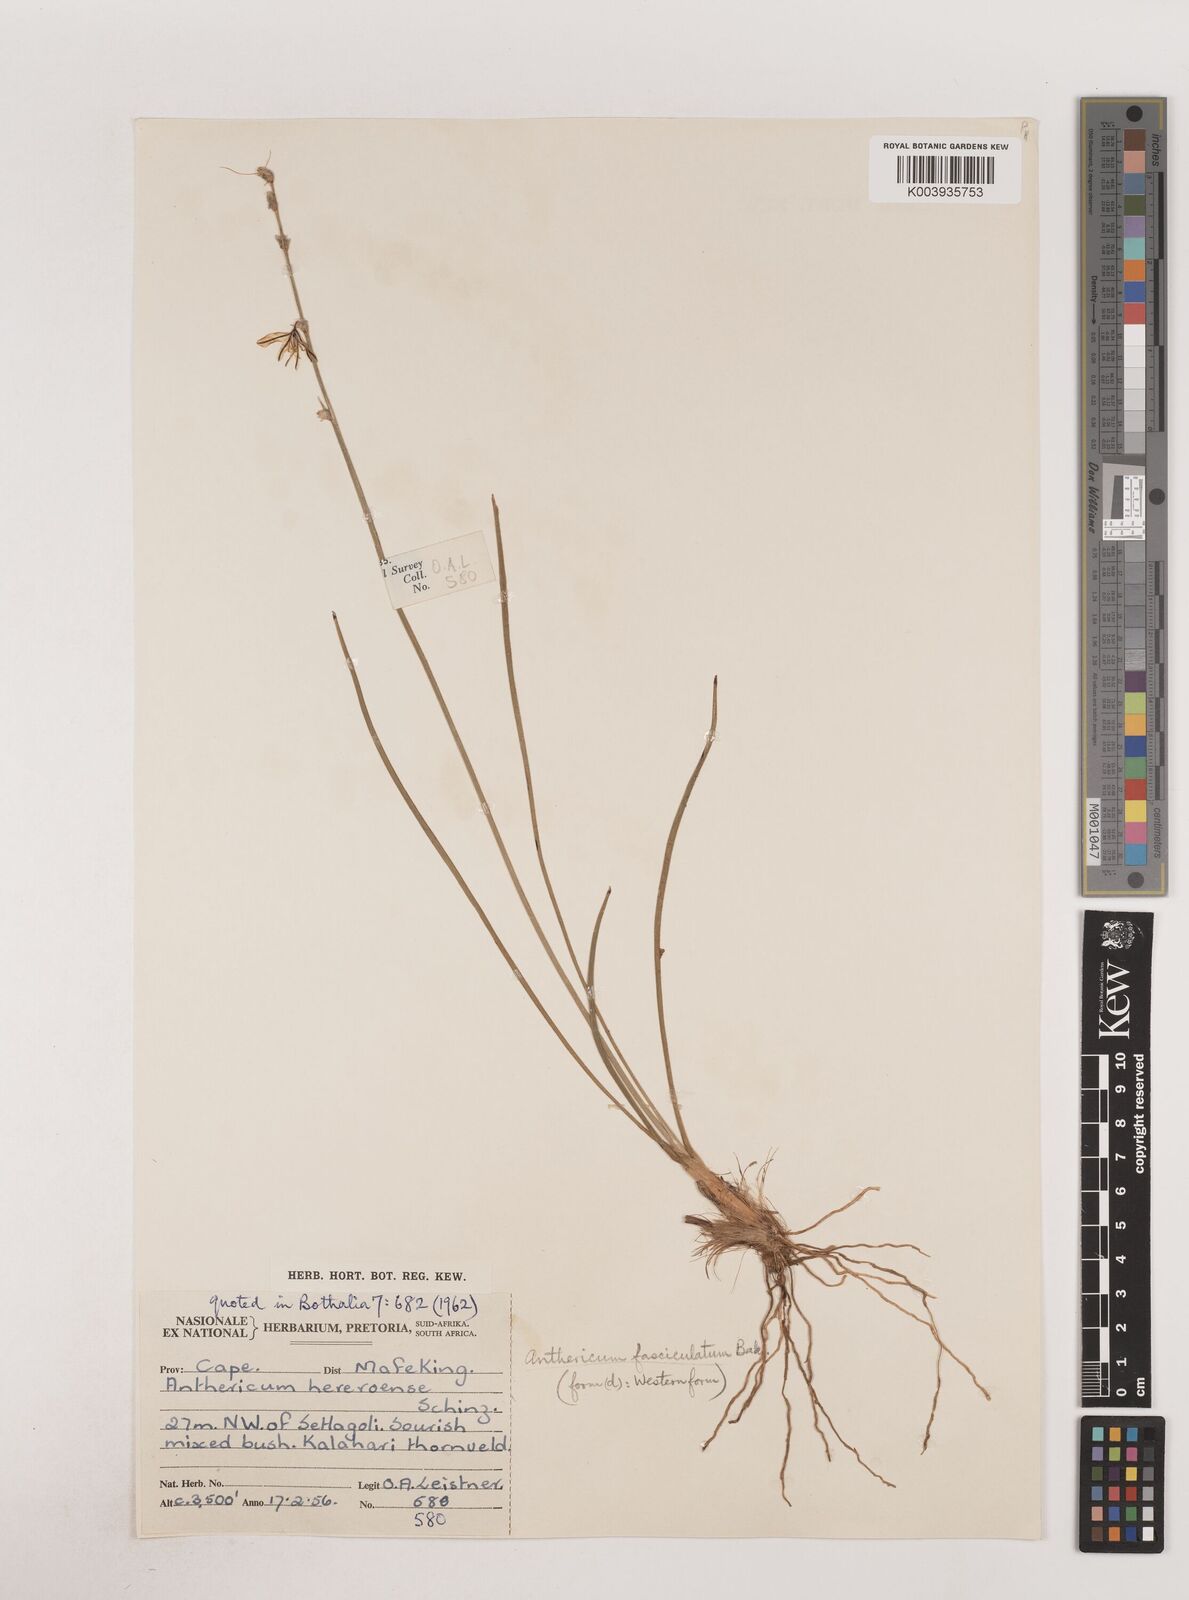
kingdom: Plantae
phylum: Tracheophyta
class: Liliopsida
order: Asparagales
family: Asparagaceae
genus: Chlorophytum
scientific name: Chlorophytum fasciculatum
